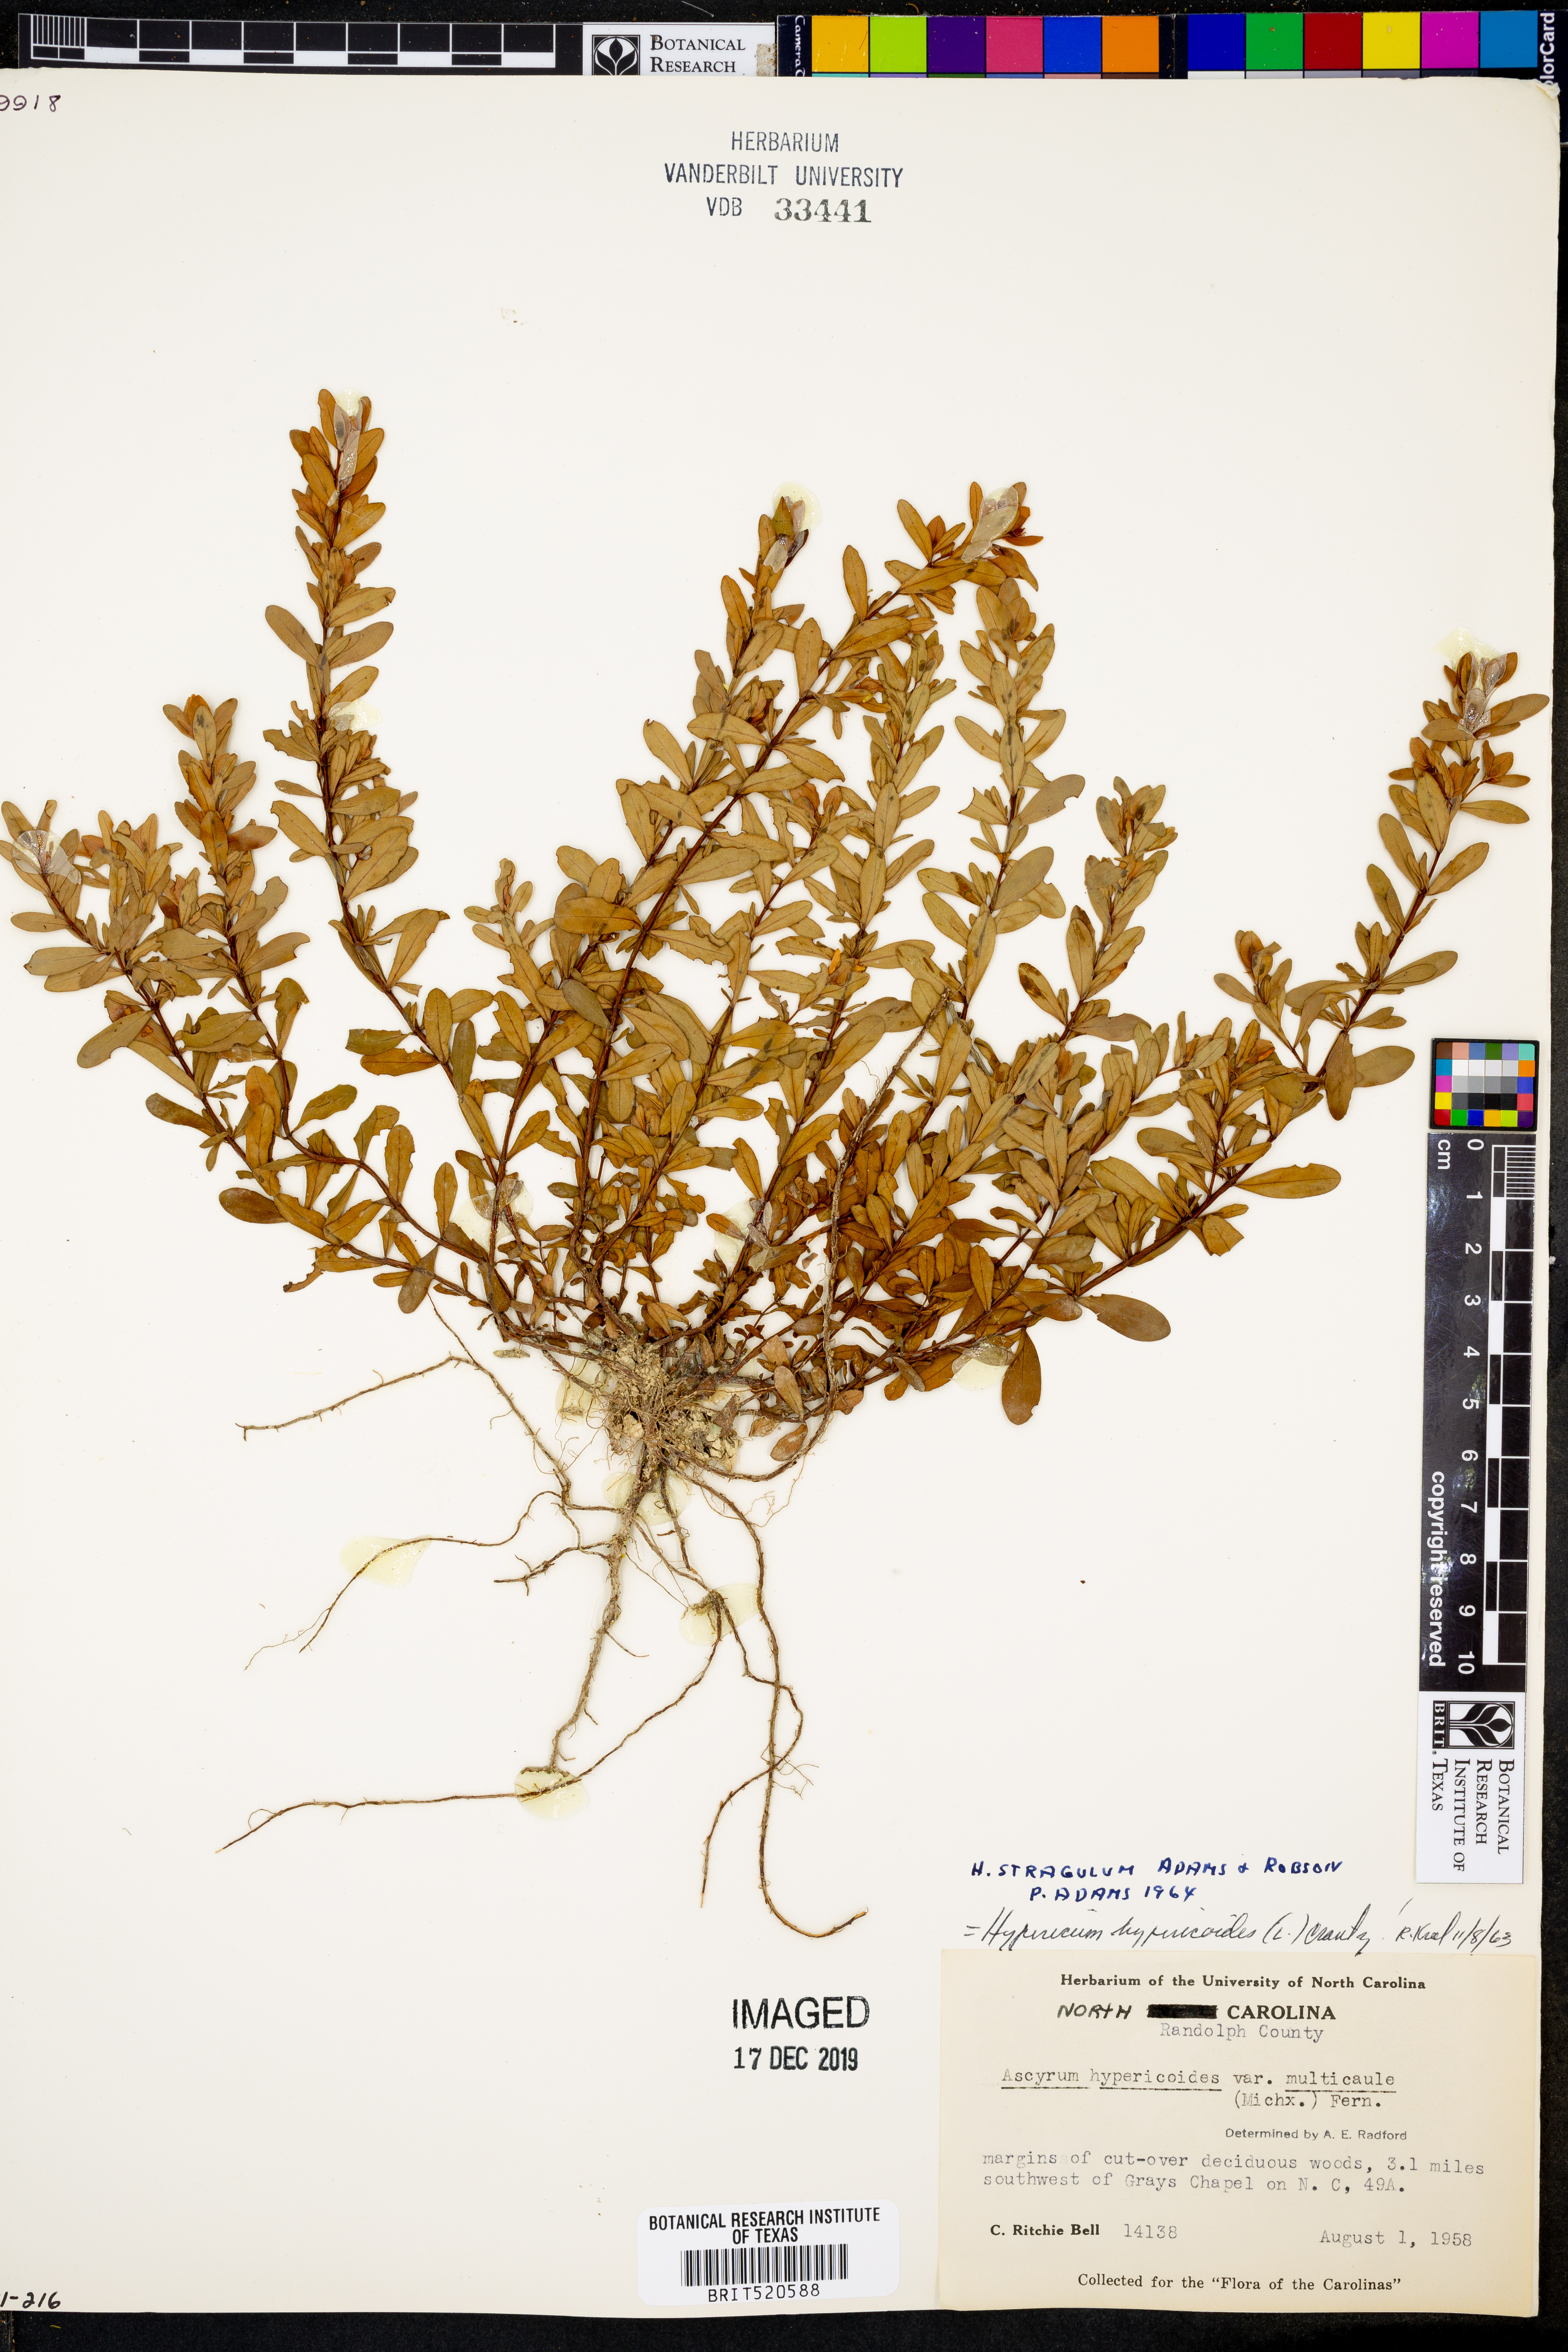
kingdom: Plantae
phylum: Tracheophyta
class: Magnoliopsida
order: Malpighiales
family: Hypericaceae
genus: Hypericum
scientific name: Hypericum hypericoides
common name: St. andrew's cross
